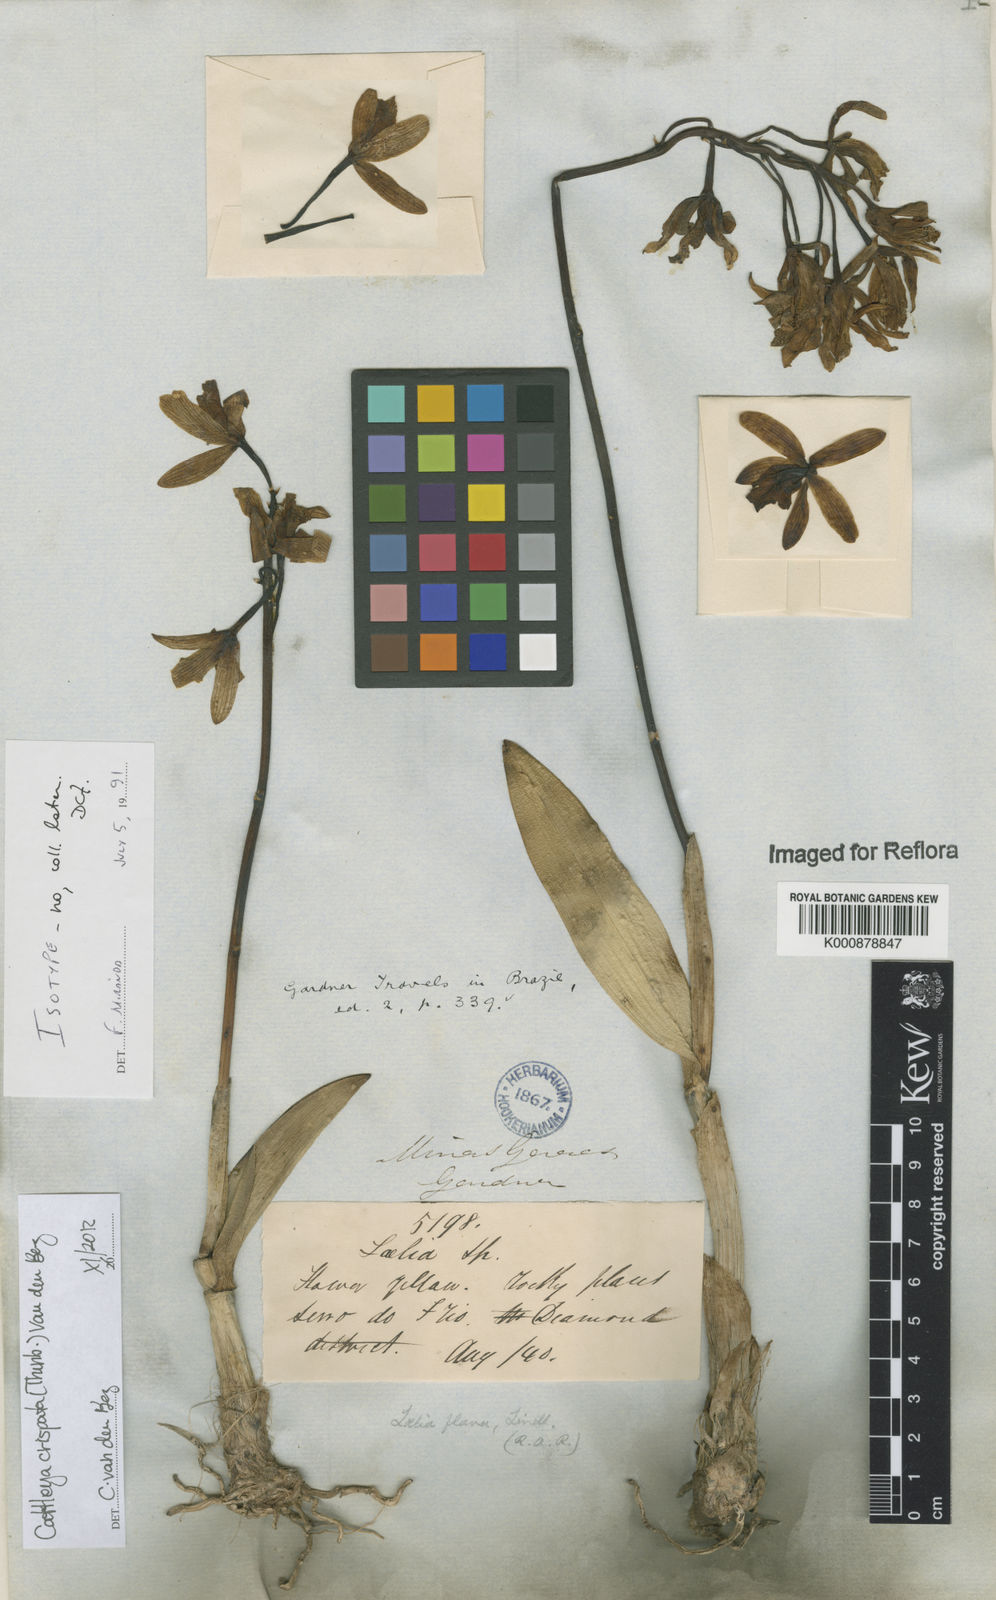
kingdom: Plantae
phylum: Tracheophyta
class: Liliopsida
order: Asparagales
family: Orchidaceae
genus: Cattleya
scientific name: Cattleya crispata
